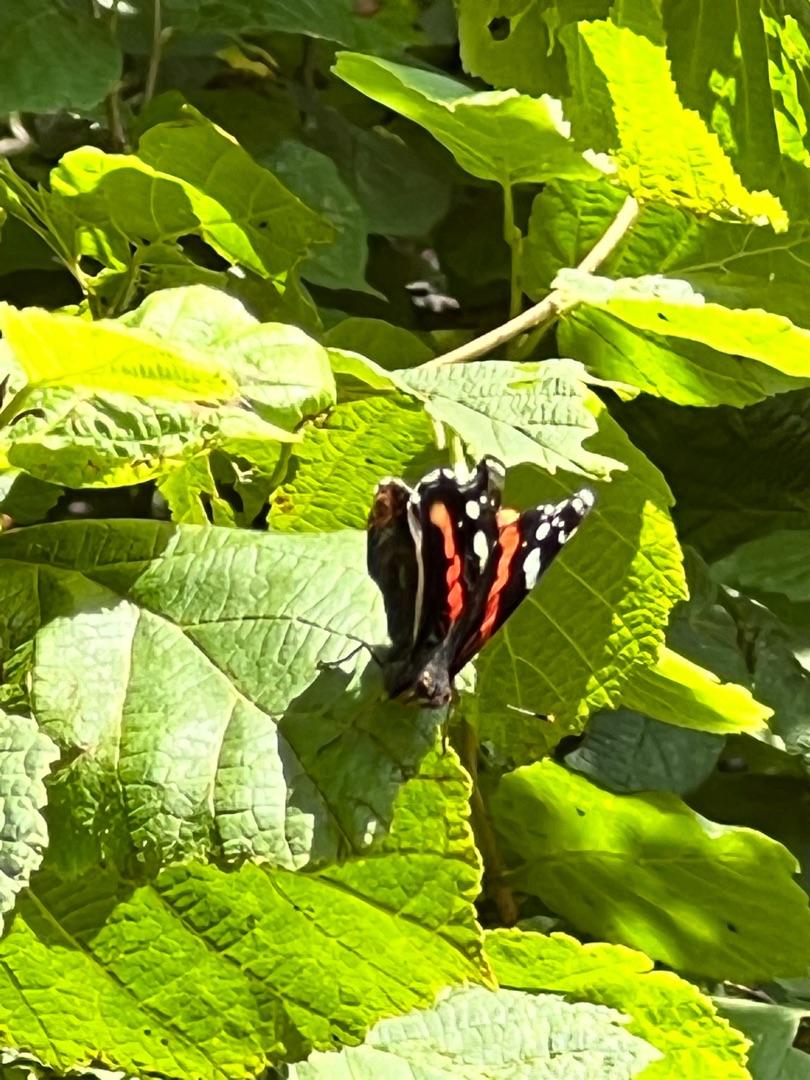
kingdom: Animalia
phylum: Arthropoda
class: Insecta
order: Lepidoptera
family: Nymphalidae
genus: Vanessa
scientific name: Vanessa atalanta
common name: Admiral
